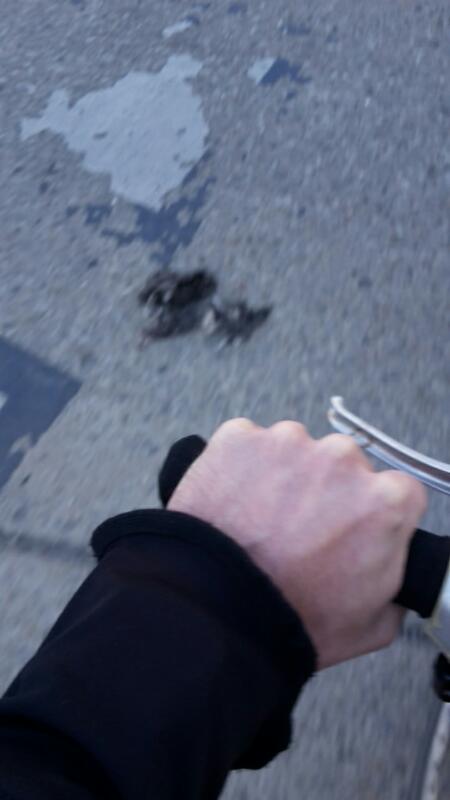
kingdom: Animalia
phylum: Chordata
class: Aves
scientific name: Aves
